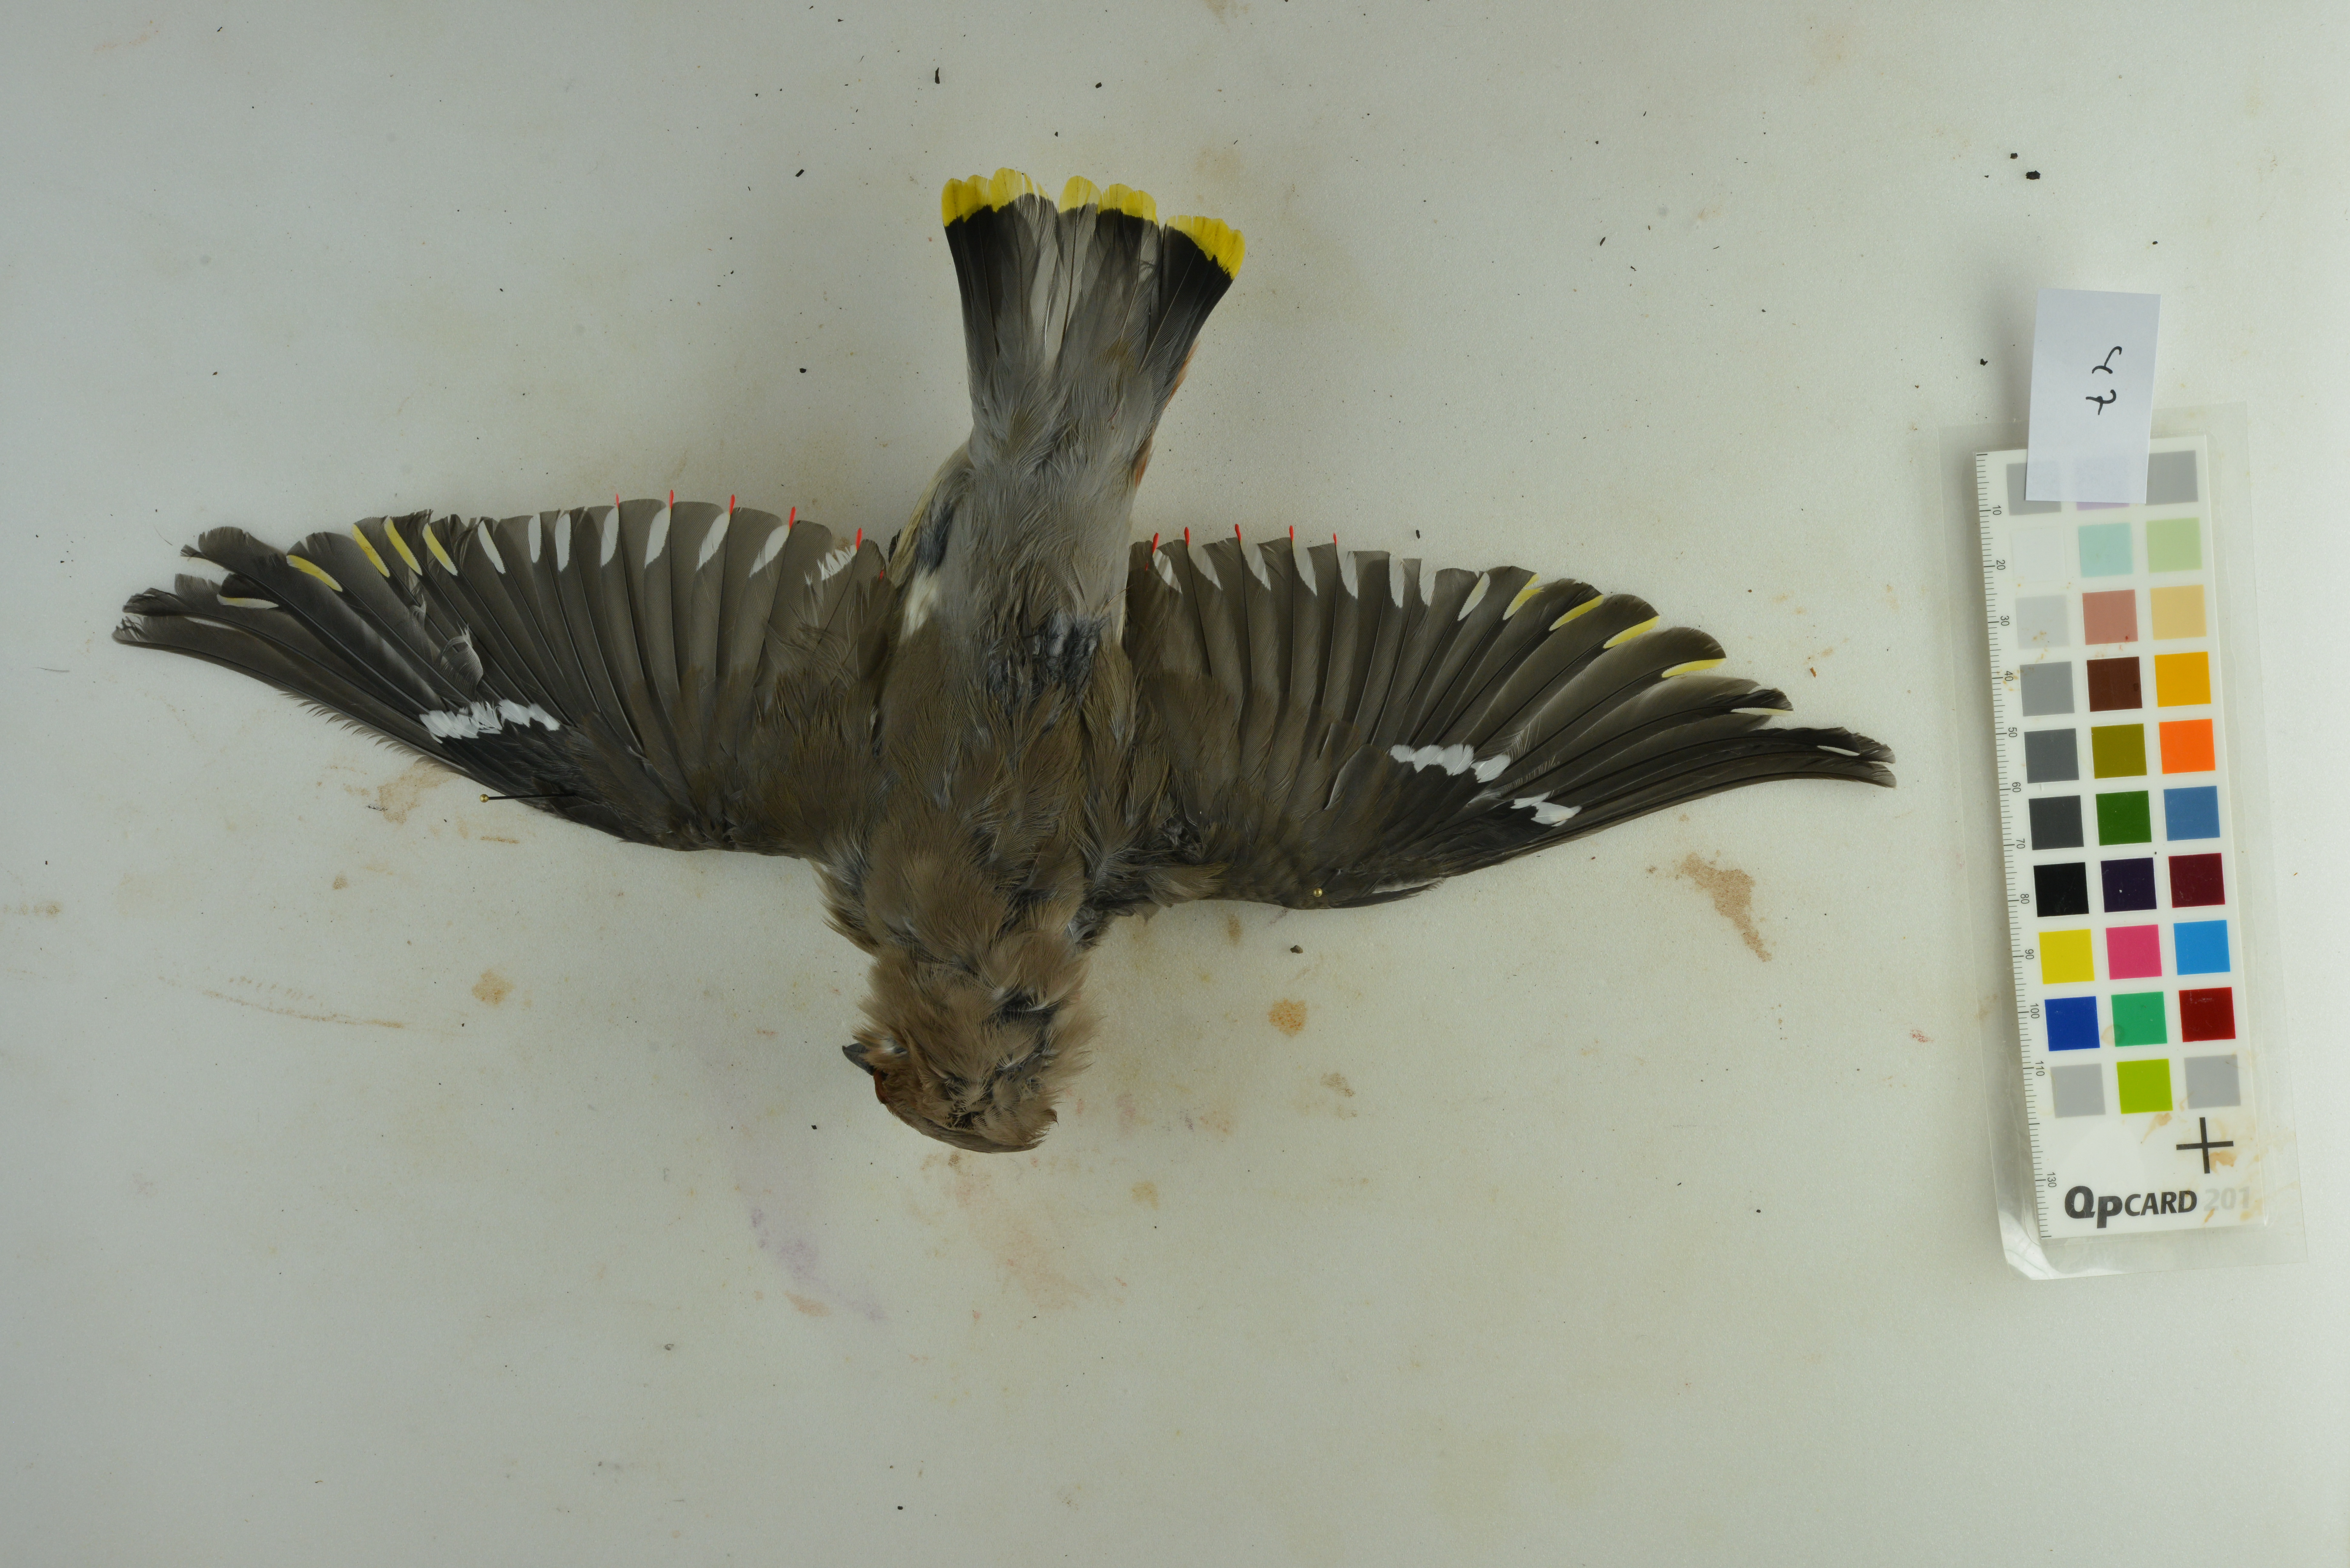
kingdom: Animalia
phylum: Chordata
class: Aves
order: Passeriformes
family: Bombycillidae
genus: Bombycilla
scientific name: Bombycilla garrulus
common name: Bohemian waxwing
